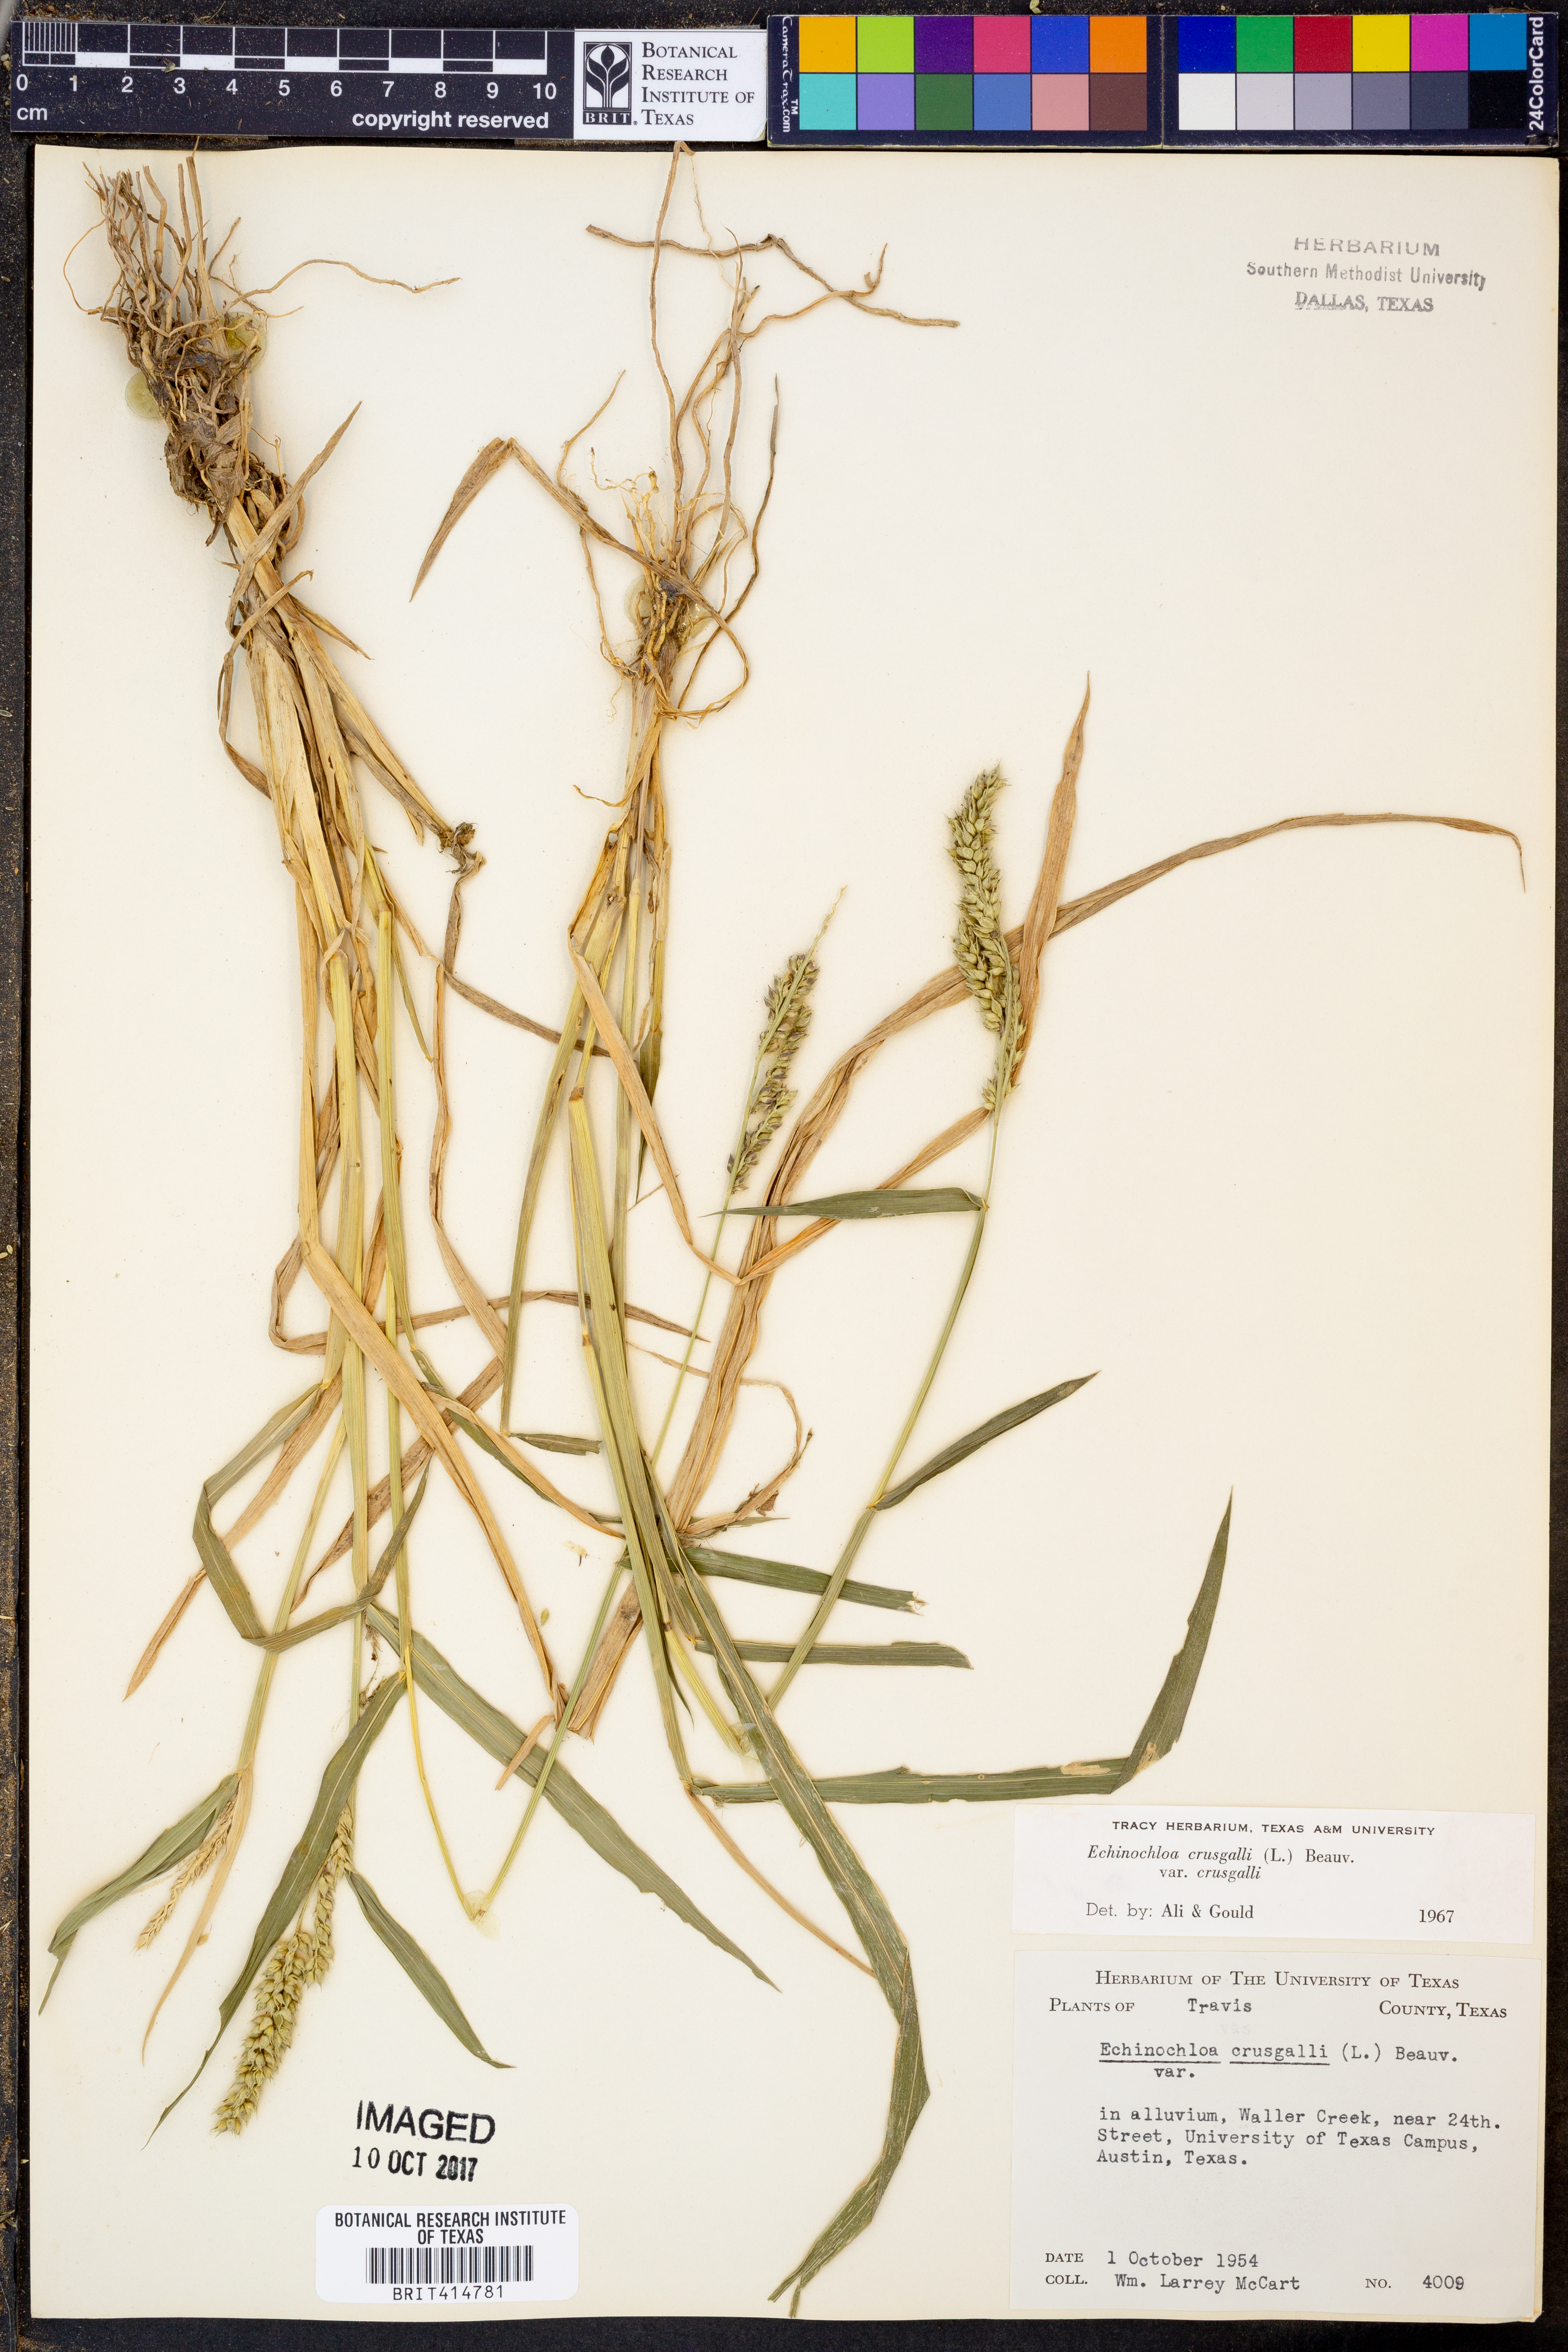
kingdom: Plantae
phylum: Tracheophyta
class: Liliopsida
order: Poales
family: Poaceae
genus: Echinochloa
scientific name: Echinochloa crus-galli
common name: Cockspur
